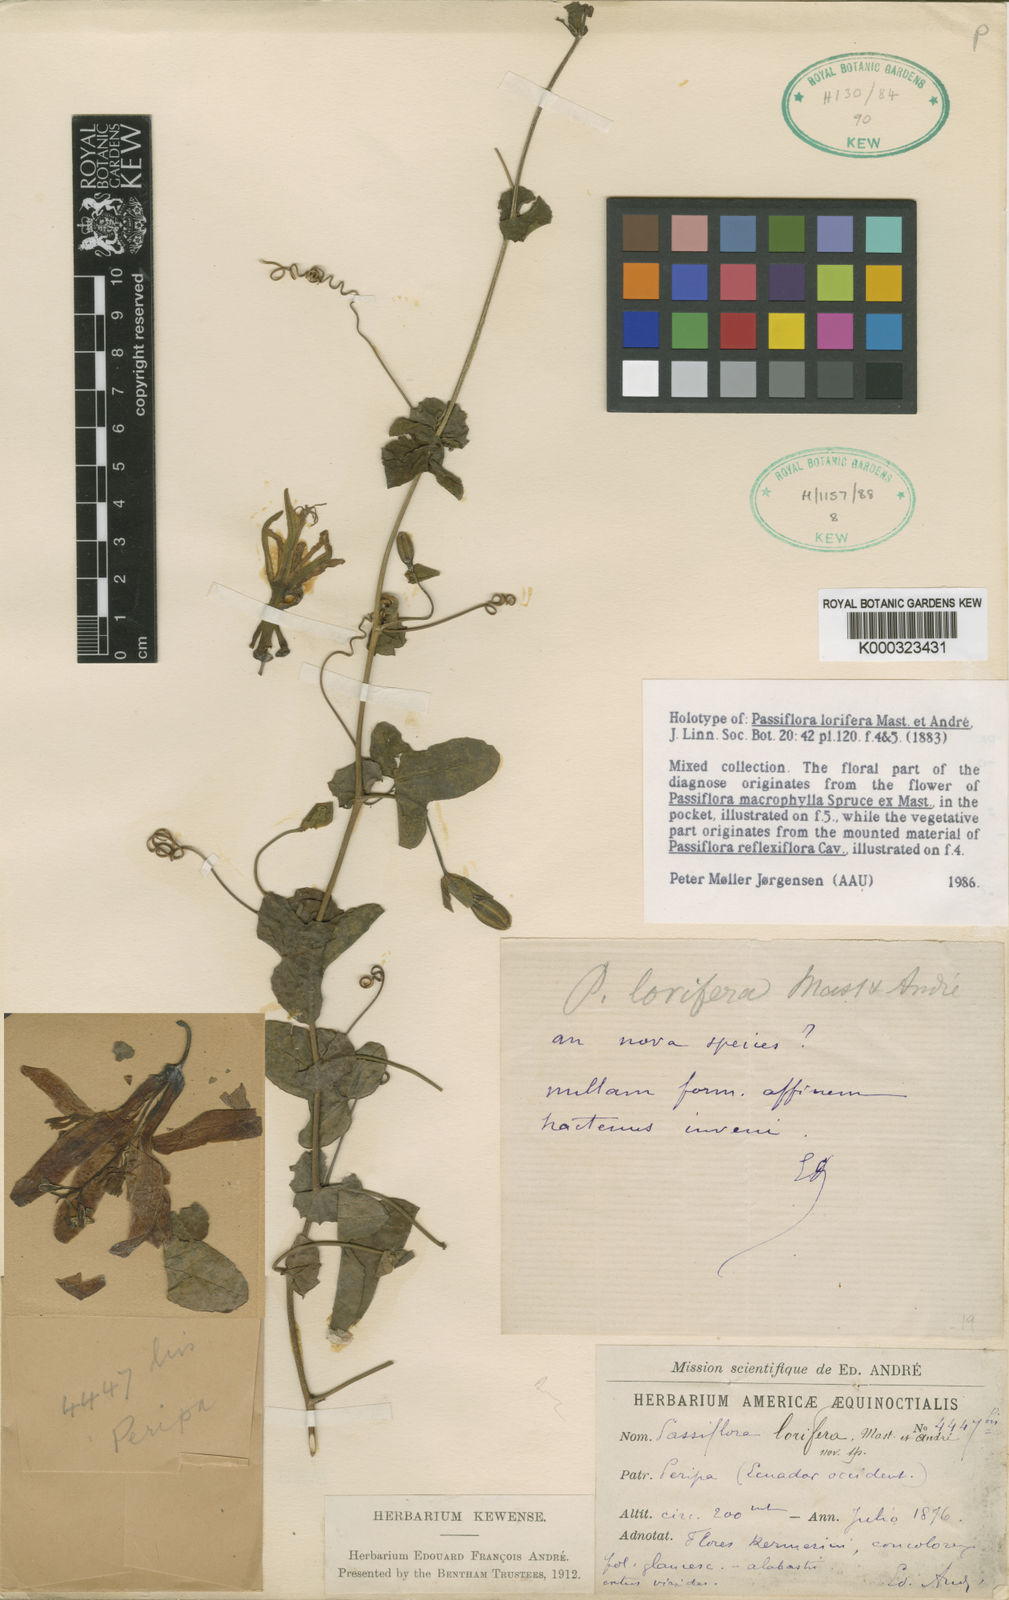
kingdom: Plantae
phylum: Tracheophyta
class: Magnoliopsida
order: Malpighiales
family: Passifloraceae
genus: Passiflora
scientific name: Passiflora macrophylla
